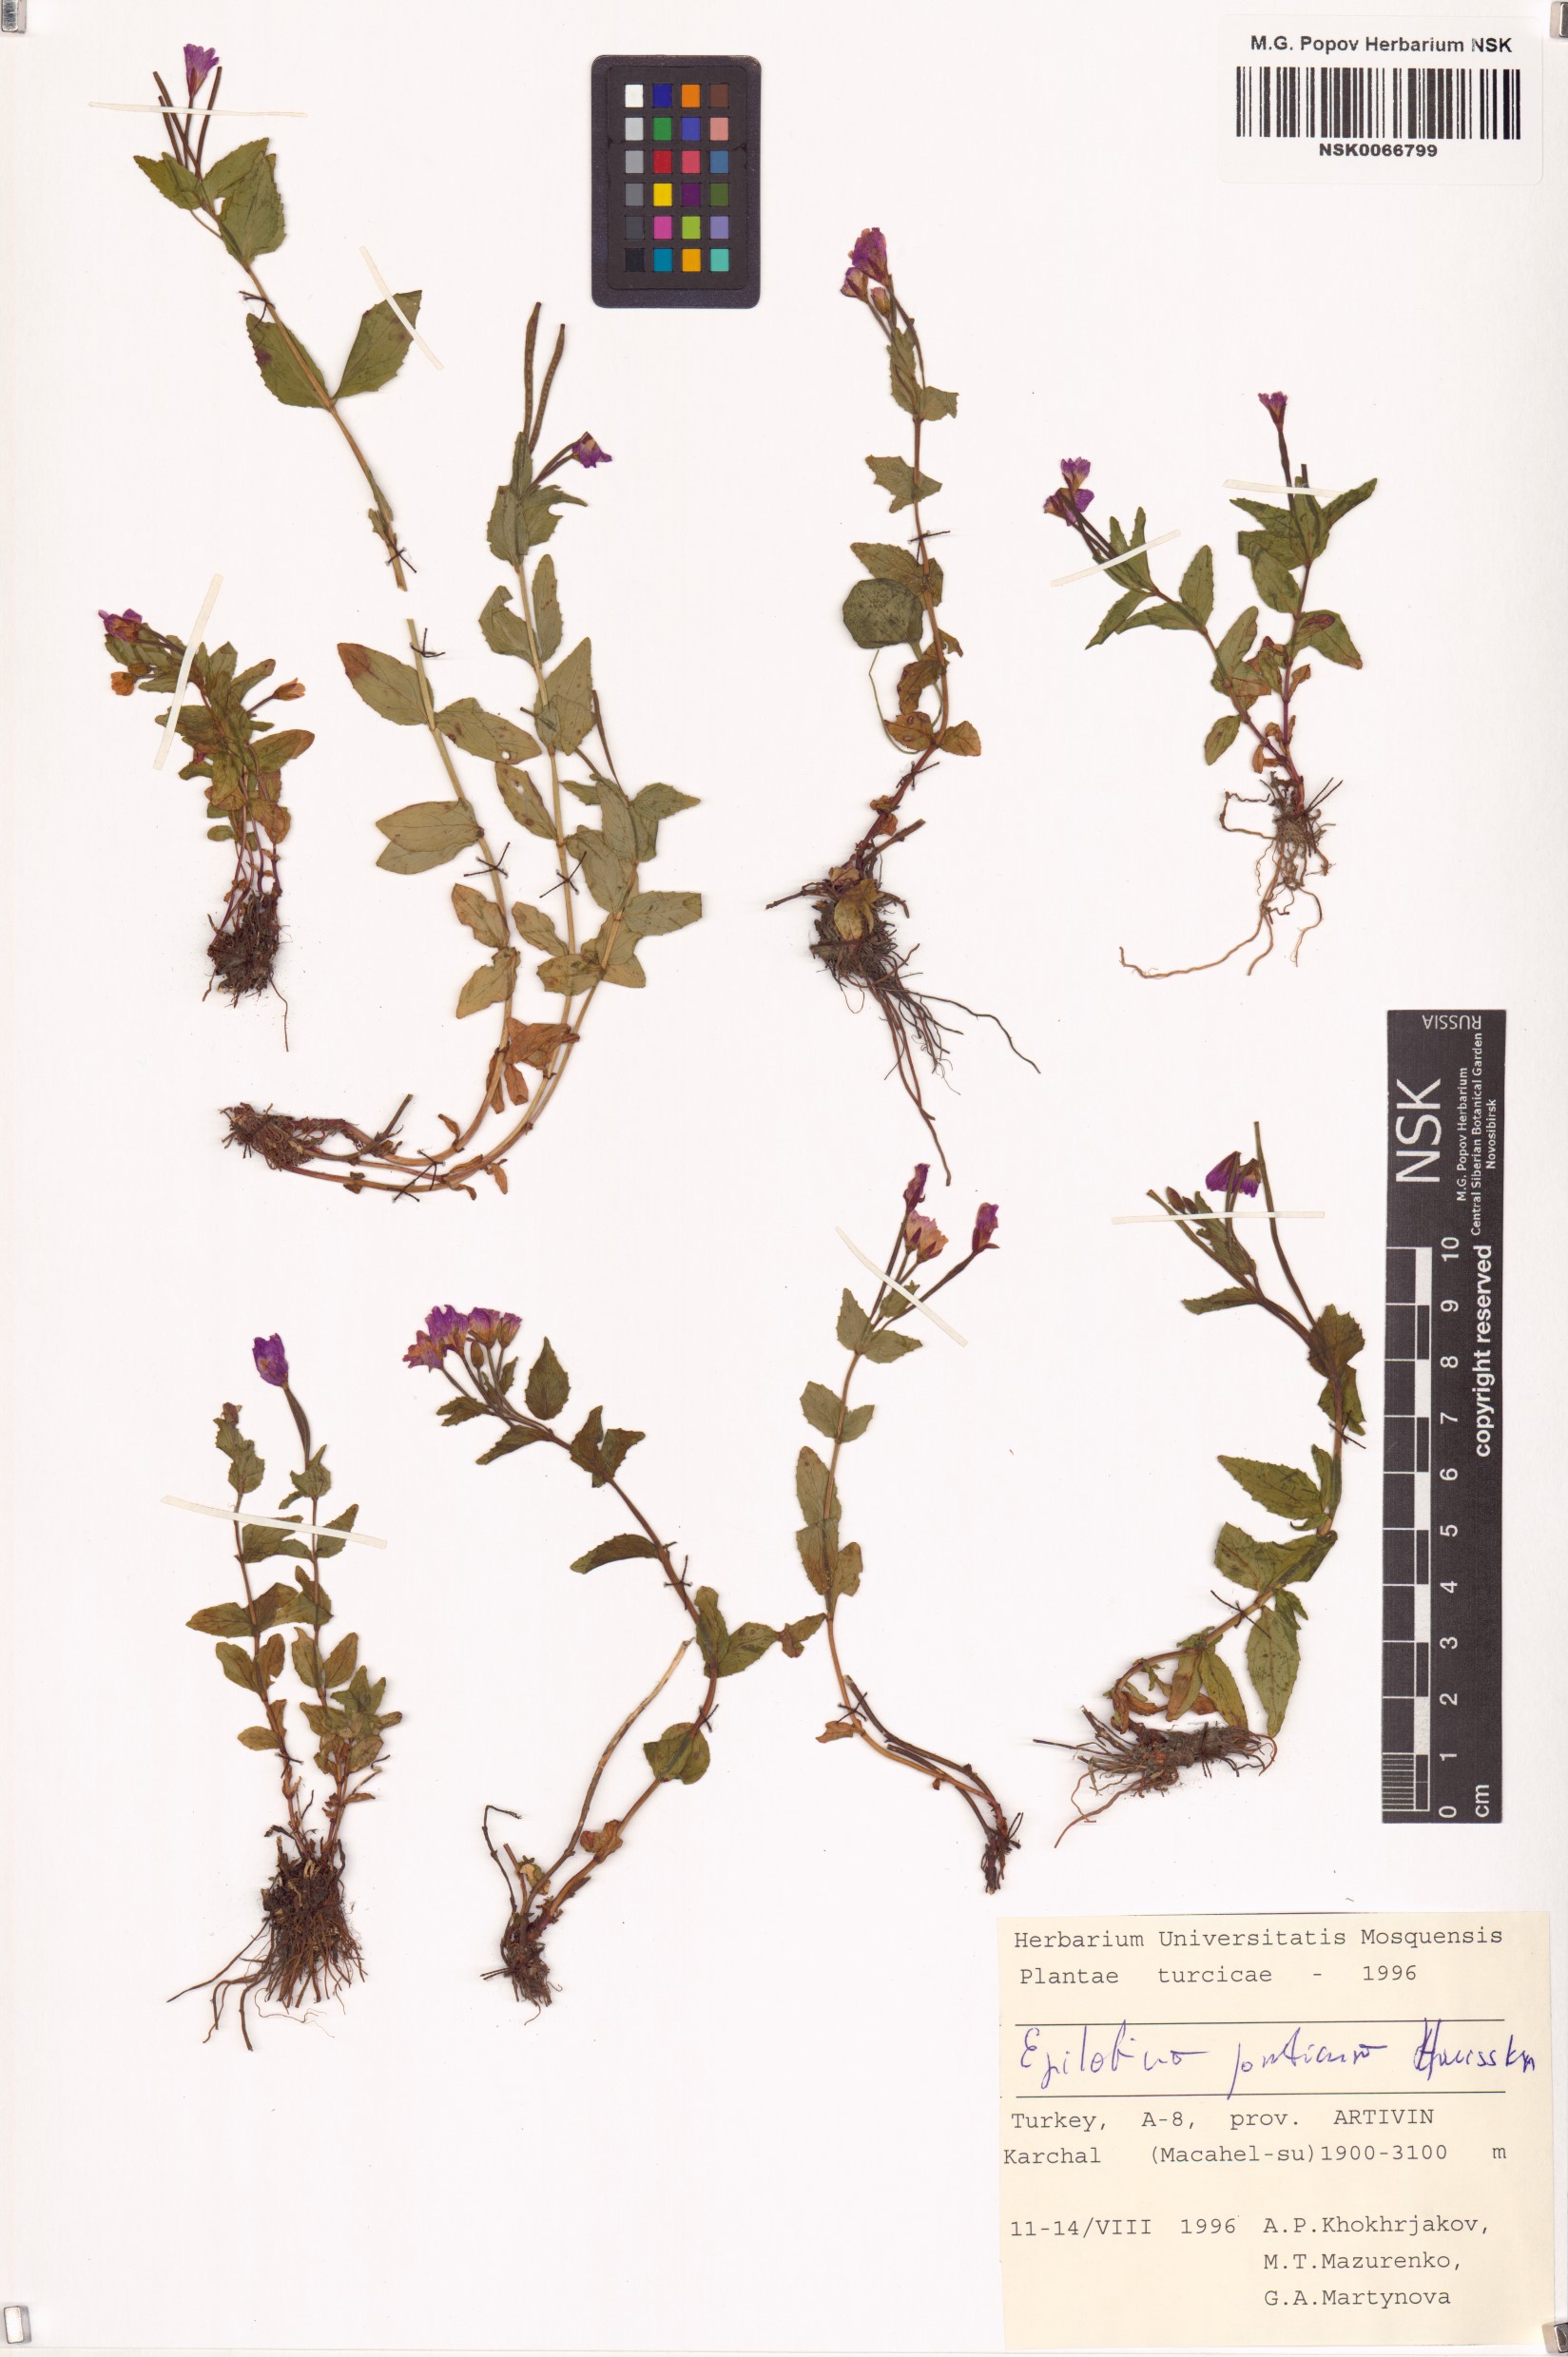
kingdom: Plantae
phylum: Tracheophyta
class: Magnoliopsida
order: Myrtales
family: Onagraceae
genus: Epilobium
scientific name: Epilobium ponticum
